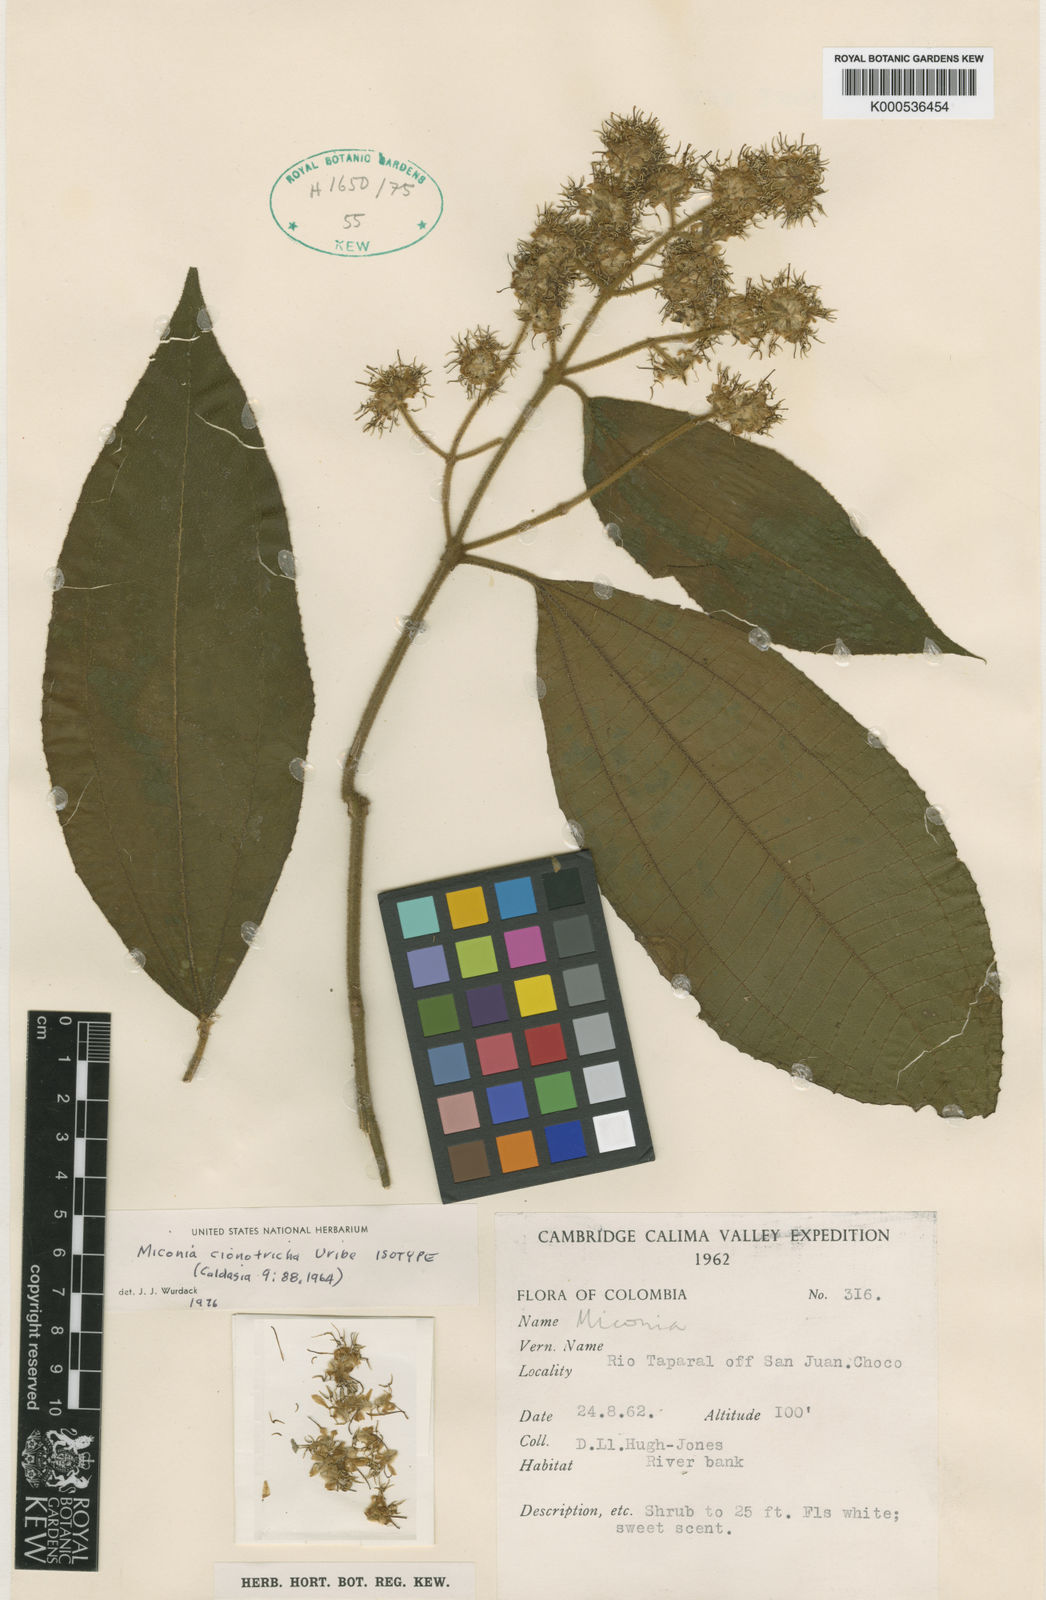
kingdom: Plantae
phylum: Tracheophyta
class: Magnoliopsida
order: Myrtales
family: Melastomataceae
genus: Miconia
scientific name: Miconia cionotricha
